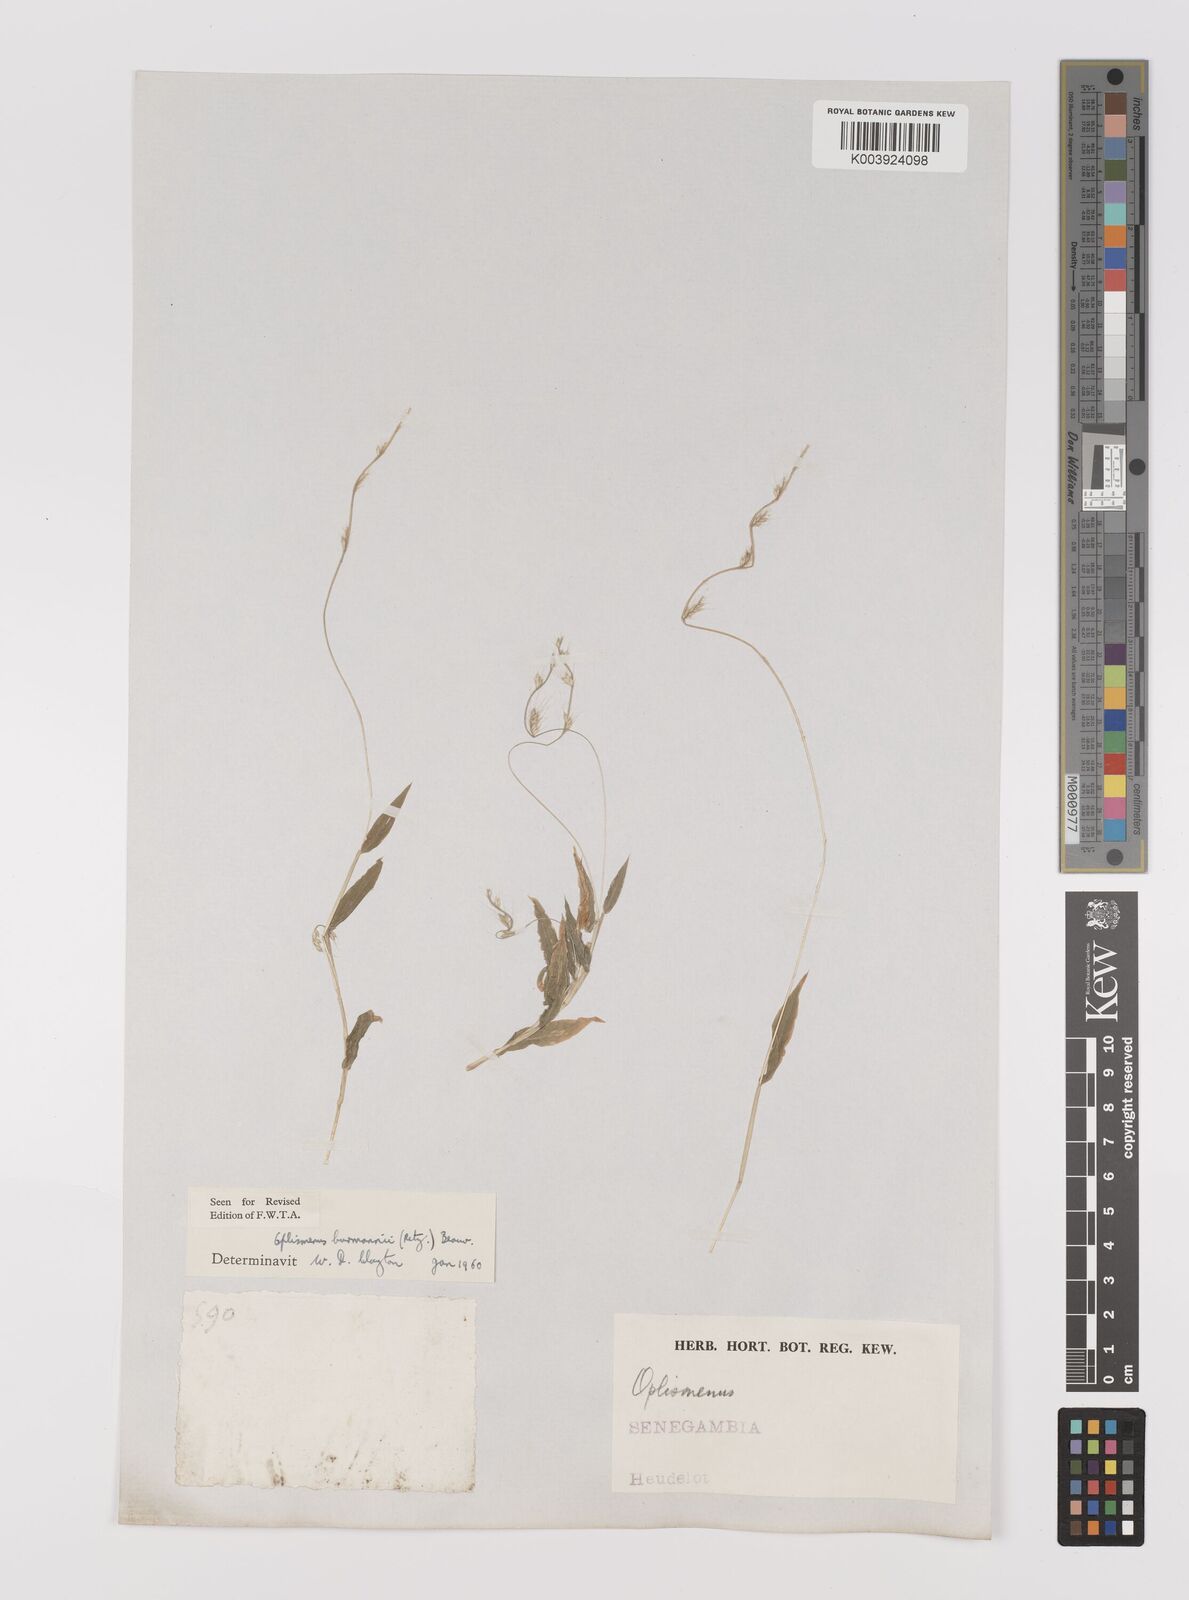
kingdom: Plantae
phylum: Tracheophyta
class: Liliopsida
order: Poales
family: Poaceae
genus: Oplismenus
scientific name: Oplismenus burmanni
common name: Burmann's basketgrass
